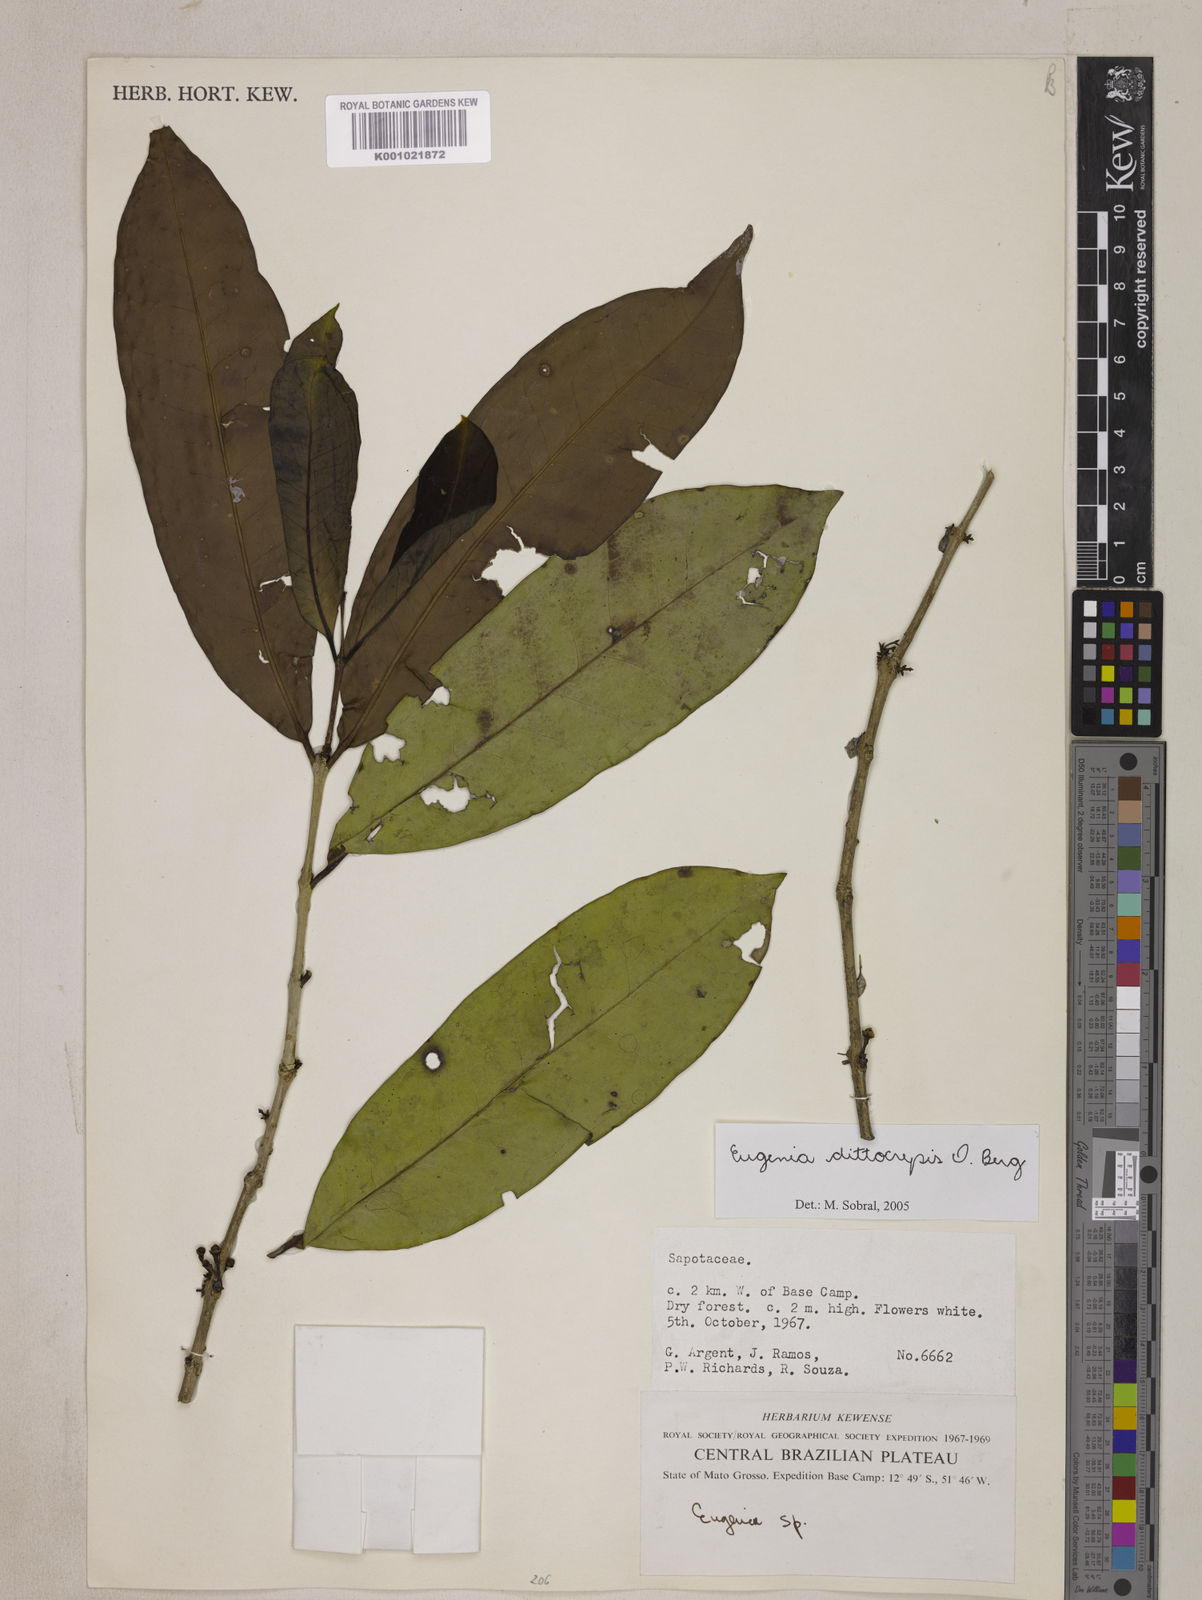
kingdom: Plantae
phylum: Tracheophyta
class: Magnoliopsida
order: Myrtales
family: Myrtaceae
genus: Eugenia
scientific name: Eugenia dittocrepis
